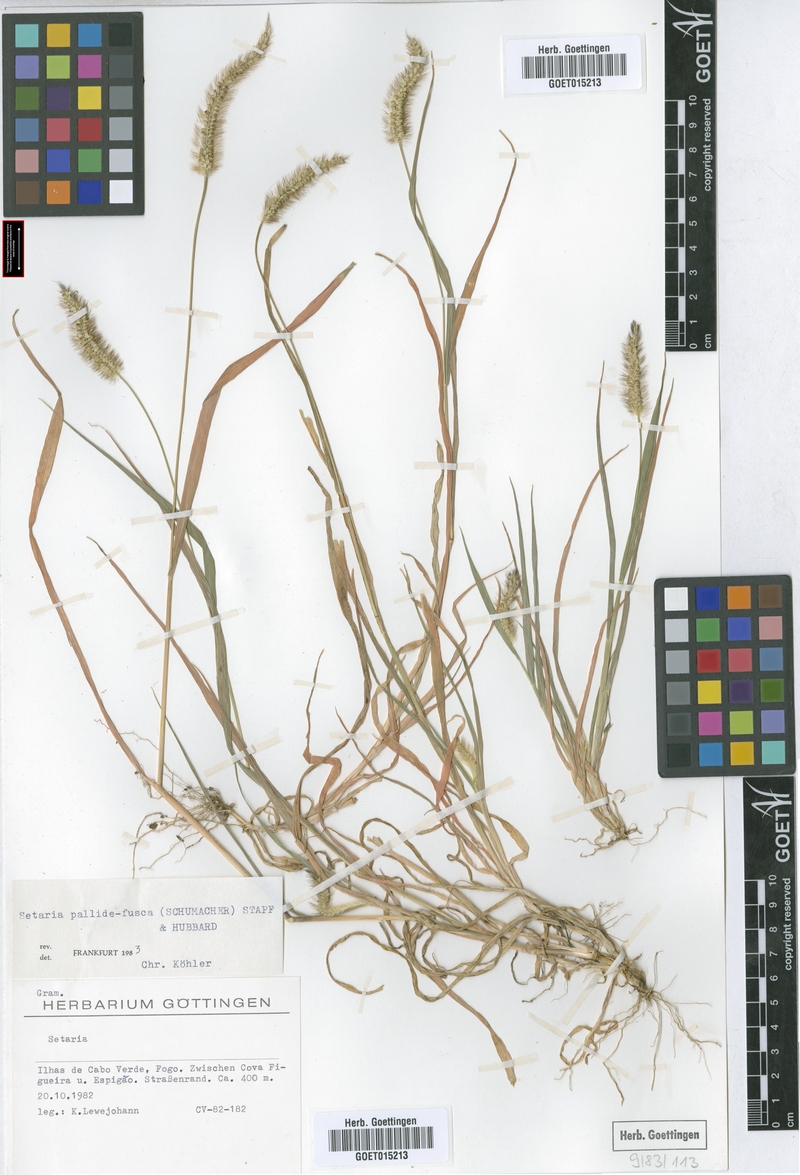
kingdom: Plantae
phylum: Tracheophyta
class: Liliopsida
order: Poales
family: Poaceae
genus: Setaria
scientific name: Setaria pumila
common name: Yellow bristle-grass
